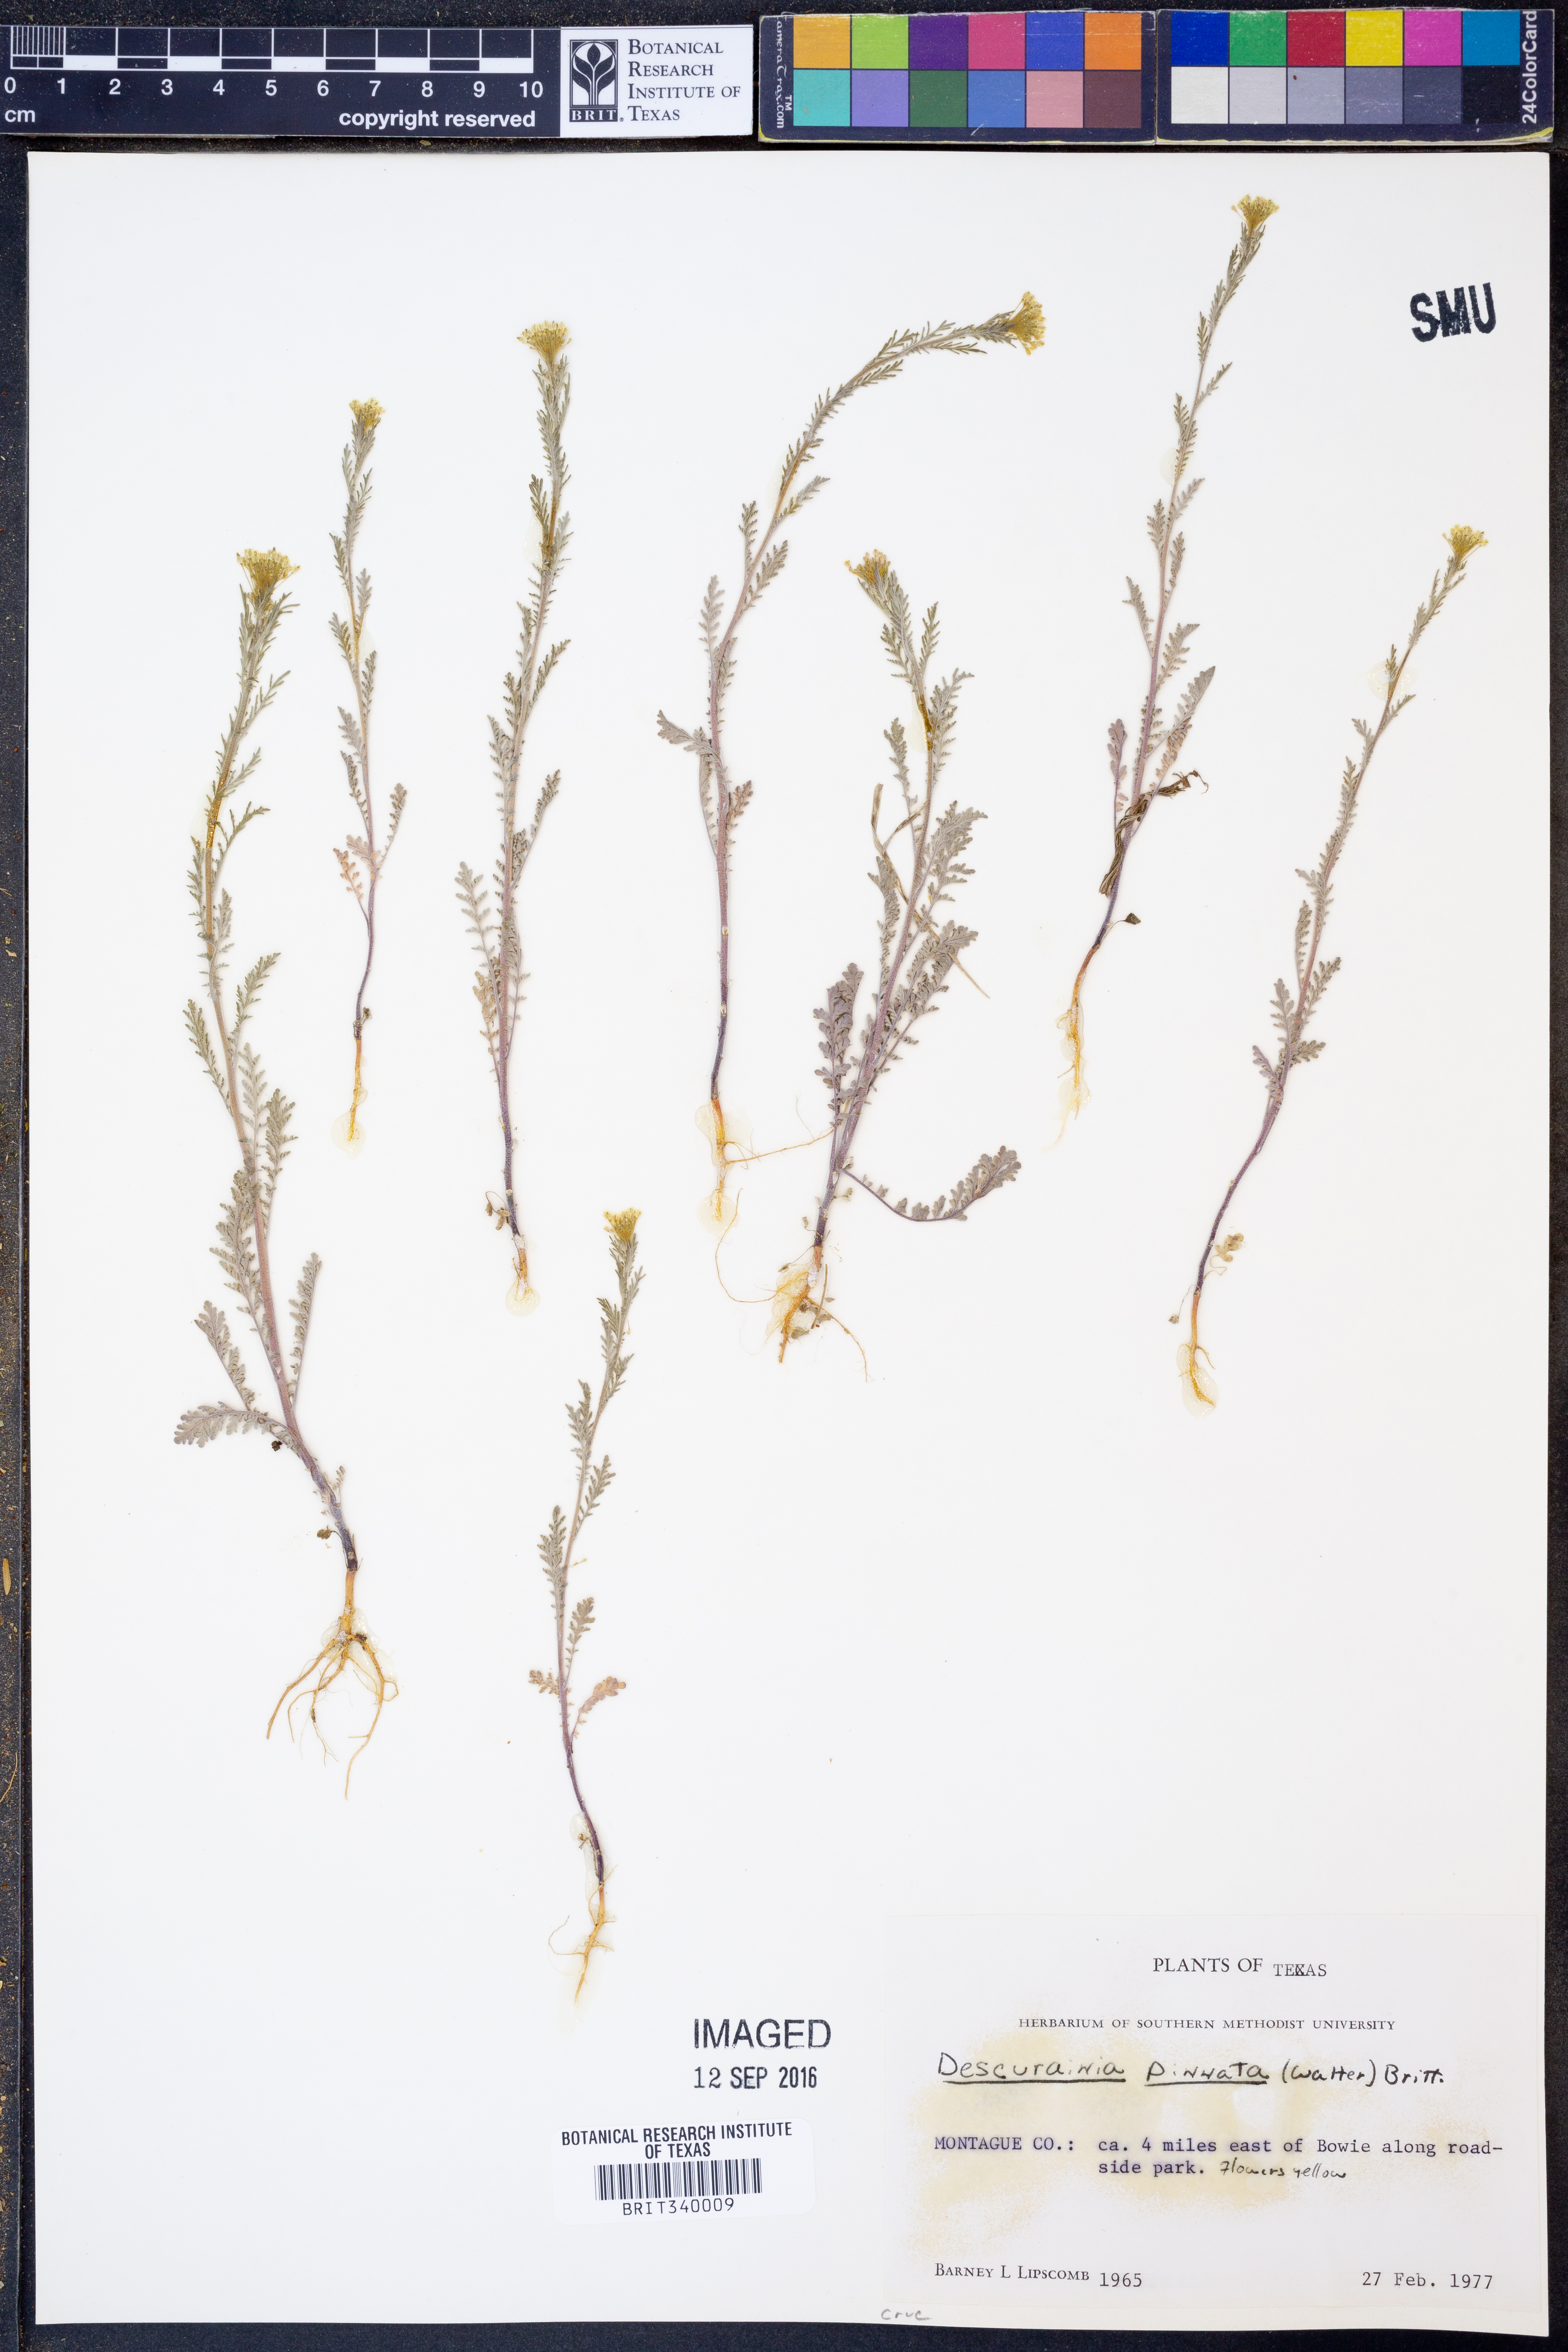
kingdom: Plantae
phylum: Tracheophyta
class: Magnoliopsida
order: Brassicales
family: Brassicaceae
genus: Descurainia
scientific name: Descurainia pinnata
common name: Western tansy mustard
